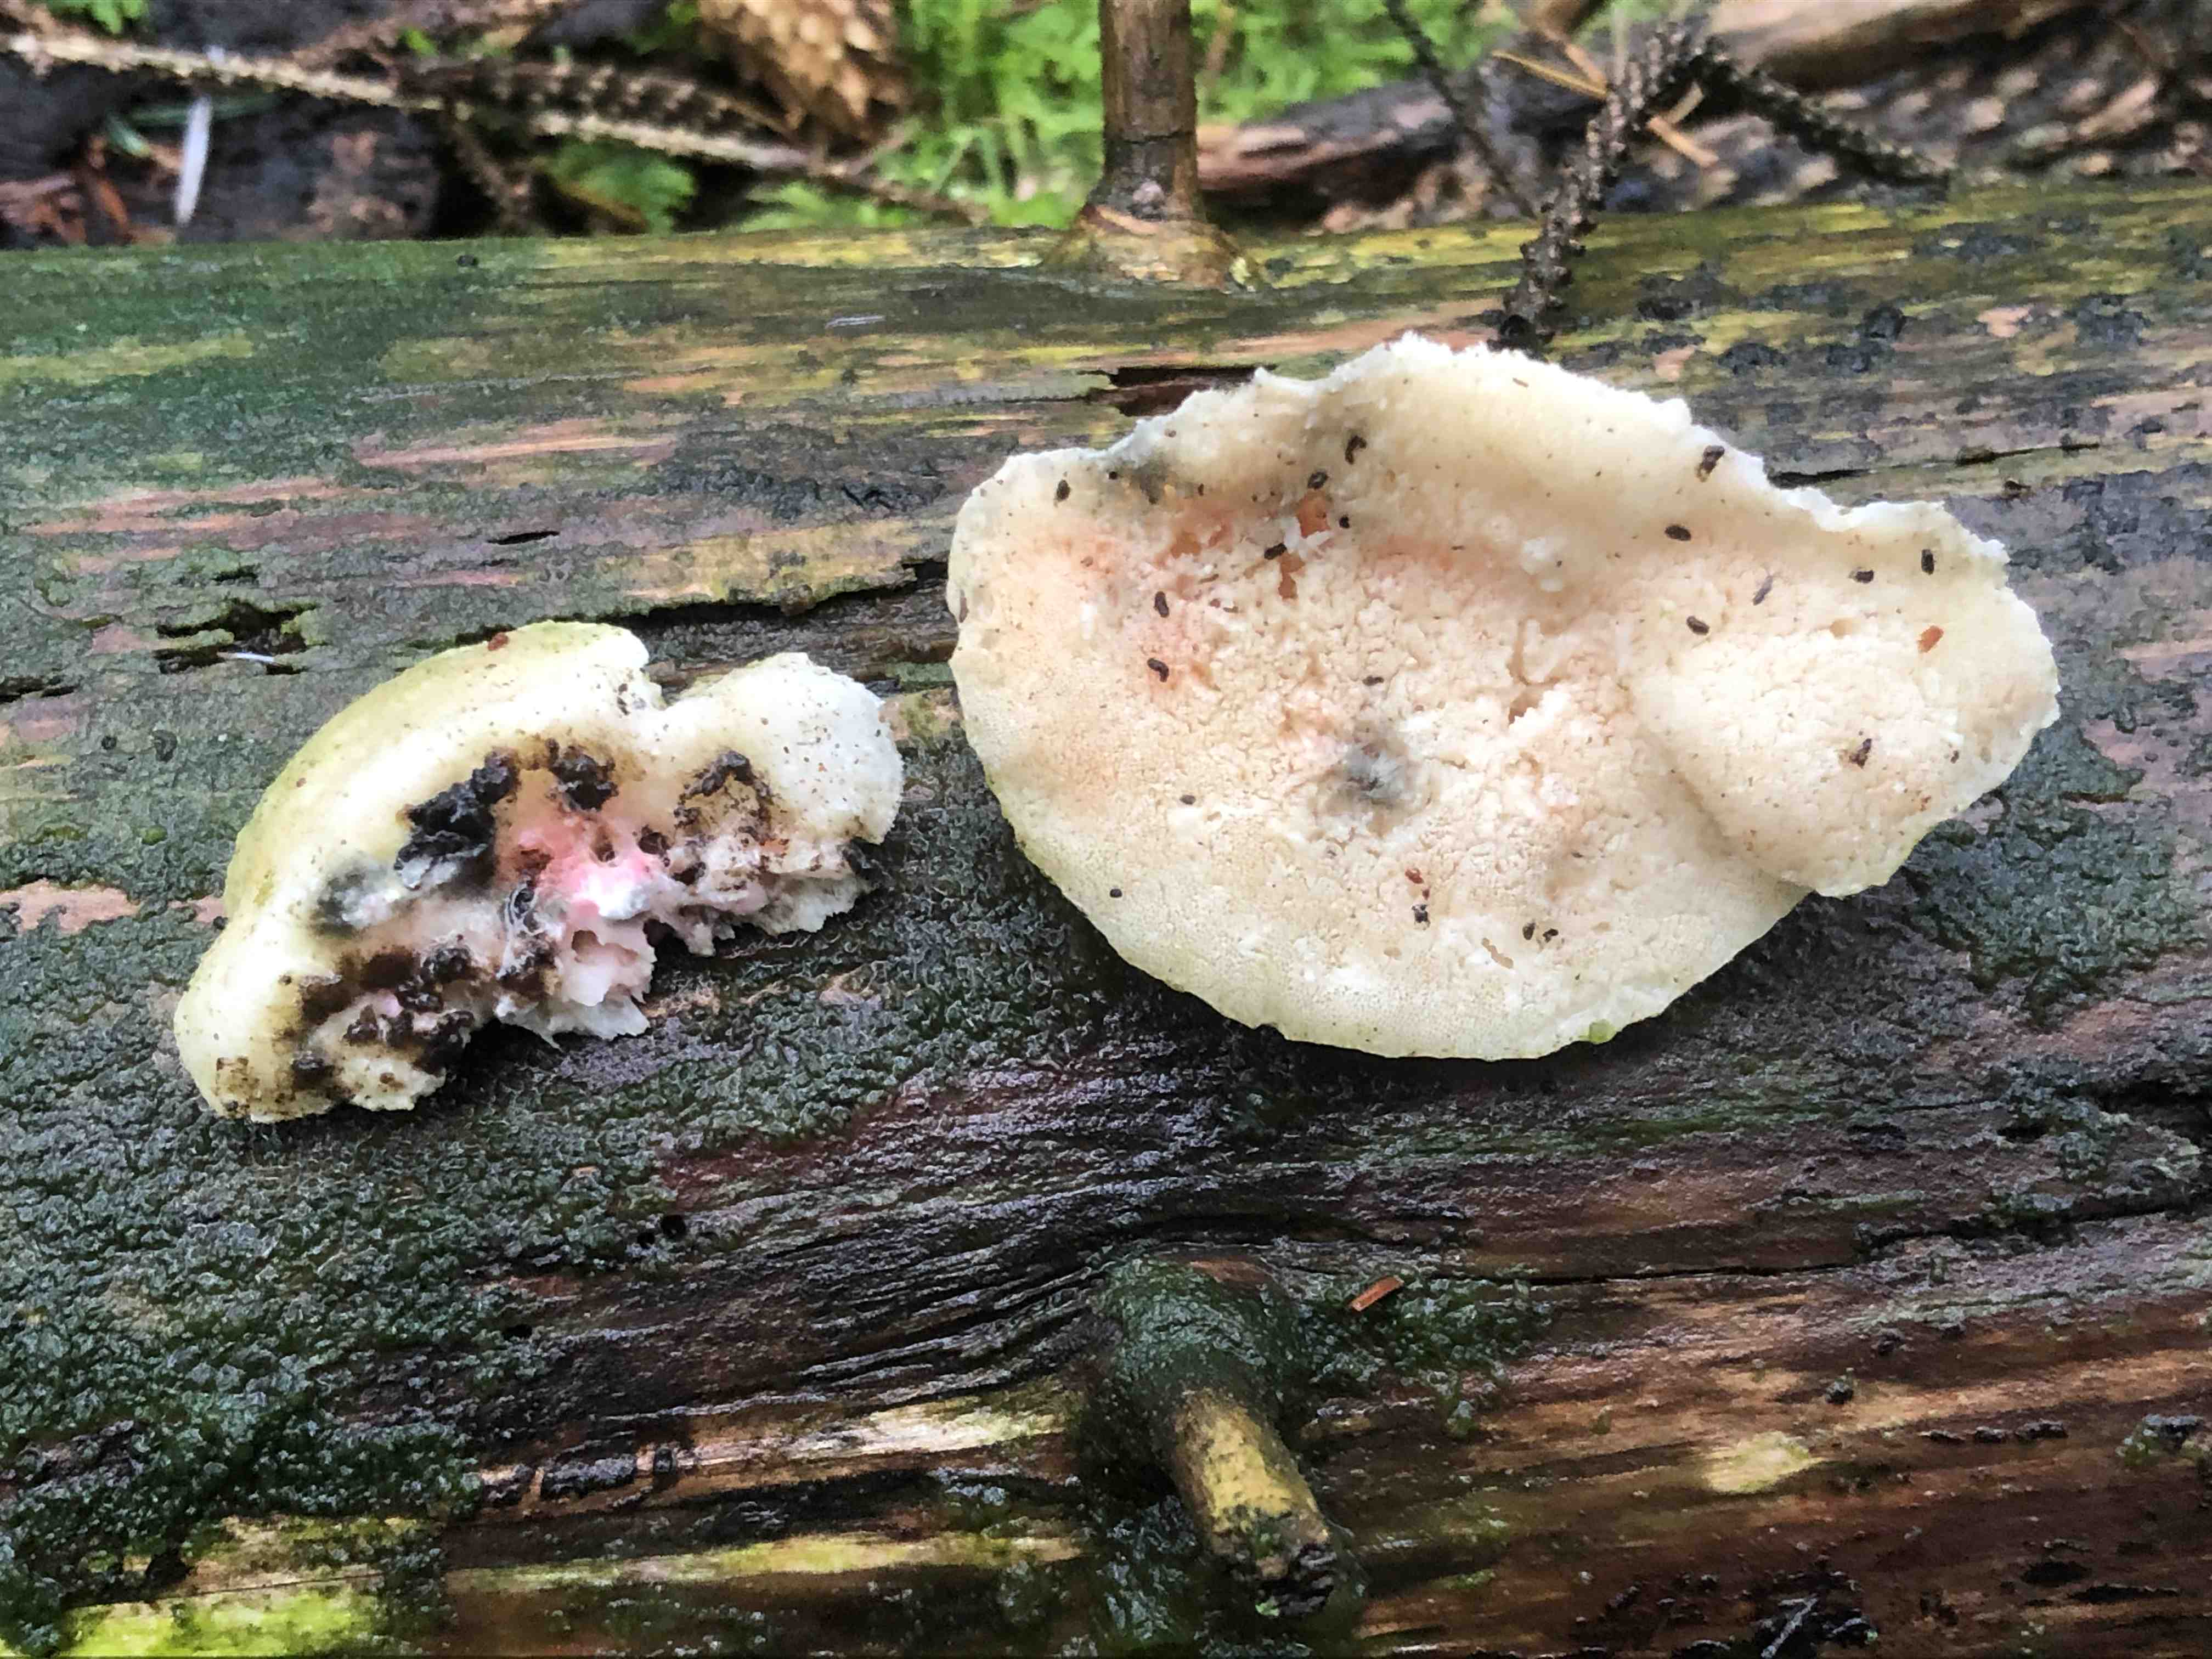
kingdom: Fungi
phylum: Basidiomycota
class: Agaricomycetes
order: Polyporales
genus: Amaropostia
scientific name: Amaropostia stiptica
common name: bitter kødporesvamp
